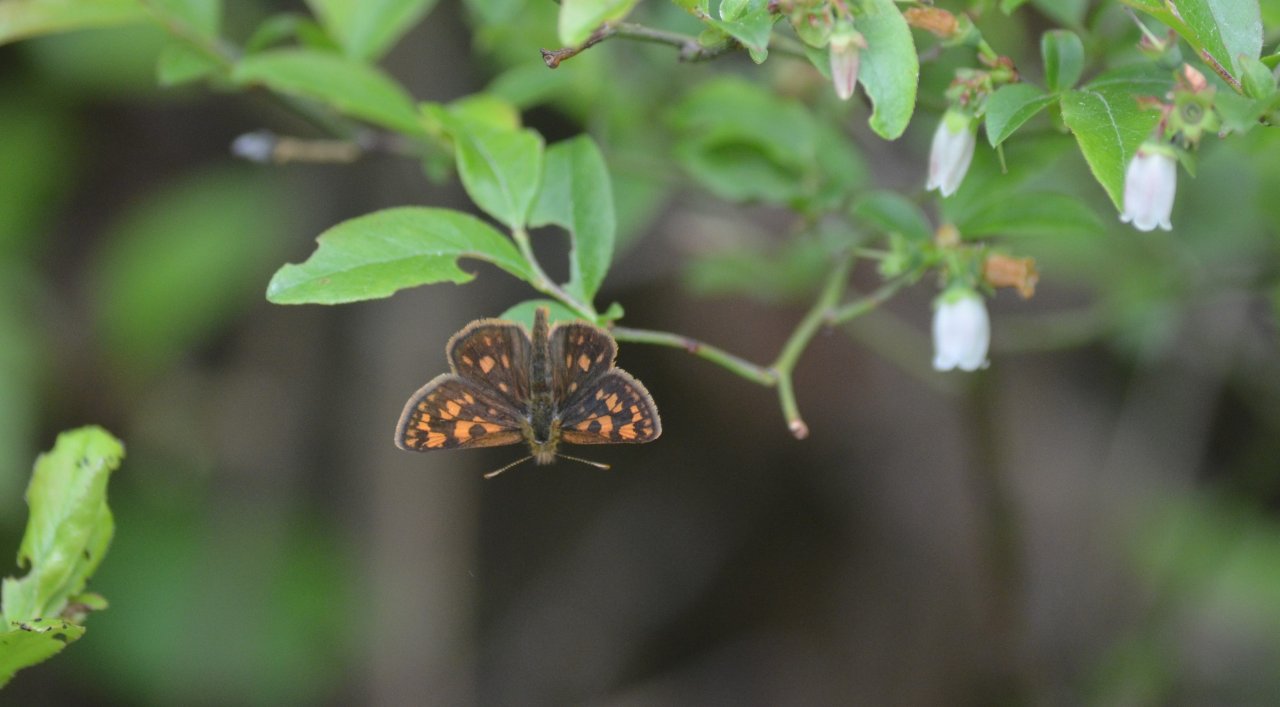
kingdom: Animalia
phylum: Arthropoda
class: Insecta
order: Lepidoptera
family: Hesperiidae
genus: Carterocephalus
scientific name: Carterocephalus palaemon
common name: Chequered Skipper
